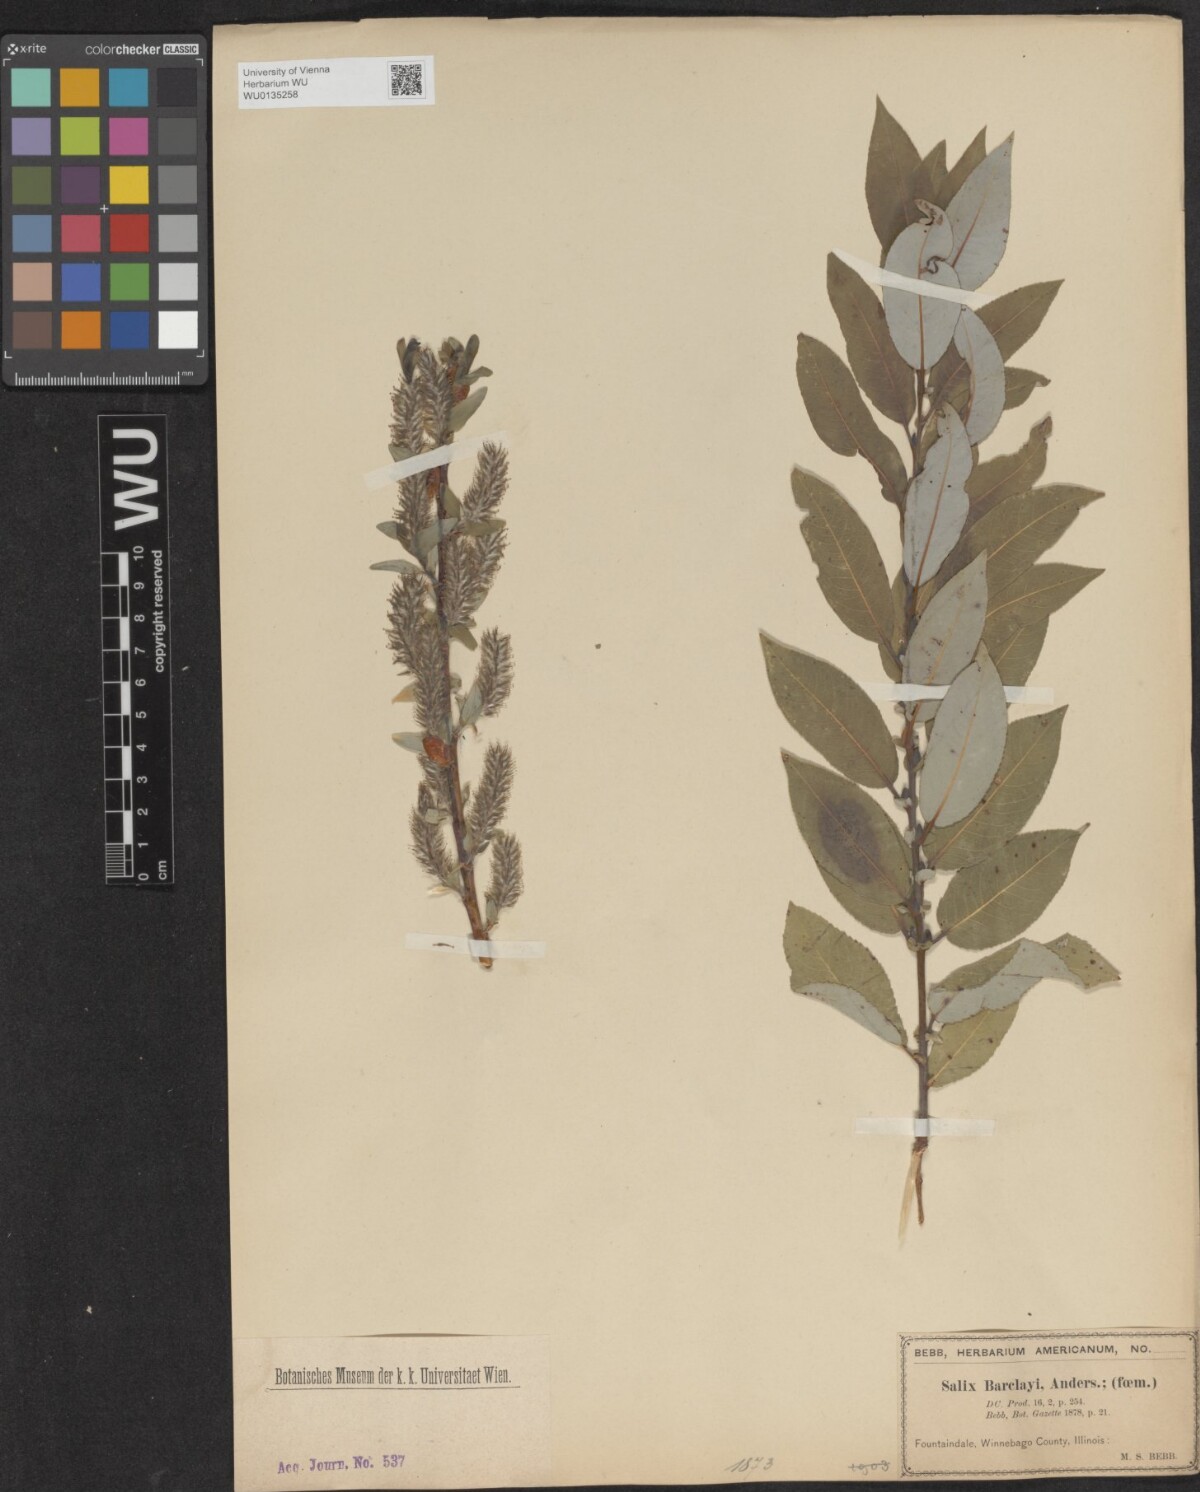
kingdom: Plantae
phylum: Tracheophyta
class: Magnoliopsida
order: Malpighiales
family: Salicaceae
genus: Salix
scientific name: Salix barclayi
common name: Mountain willow
